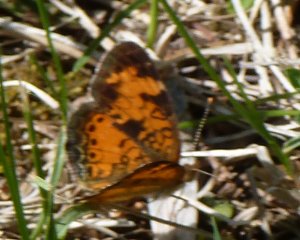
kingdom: Animalia
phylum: Arthropoda
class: Insecta
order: Lepidoptera
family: Nymphalidae
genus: Phyciodes
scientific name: Phyciodes tharos
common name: Northern Crescent
